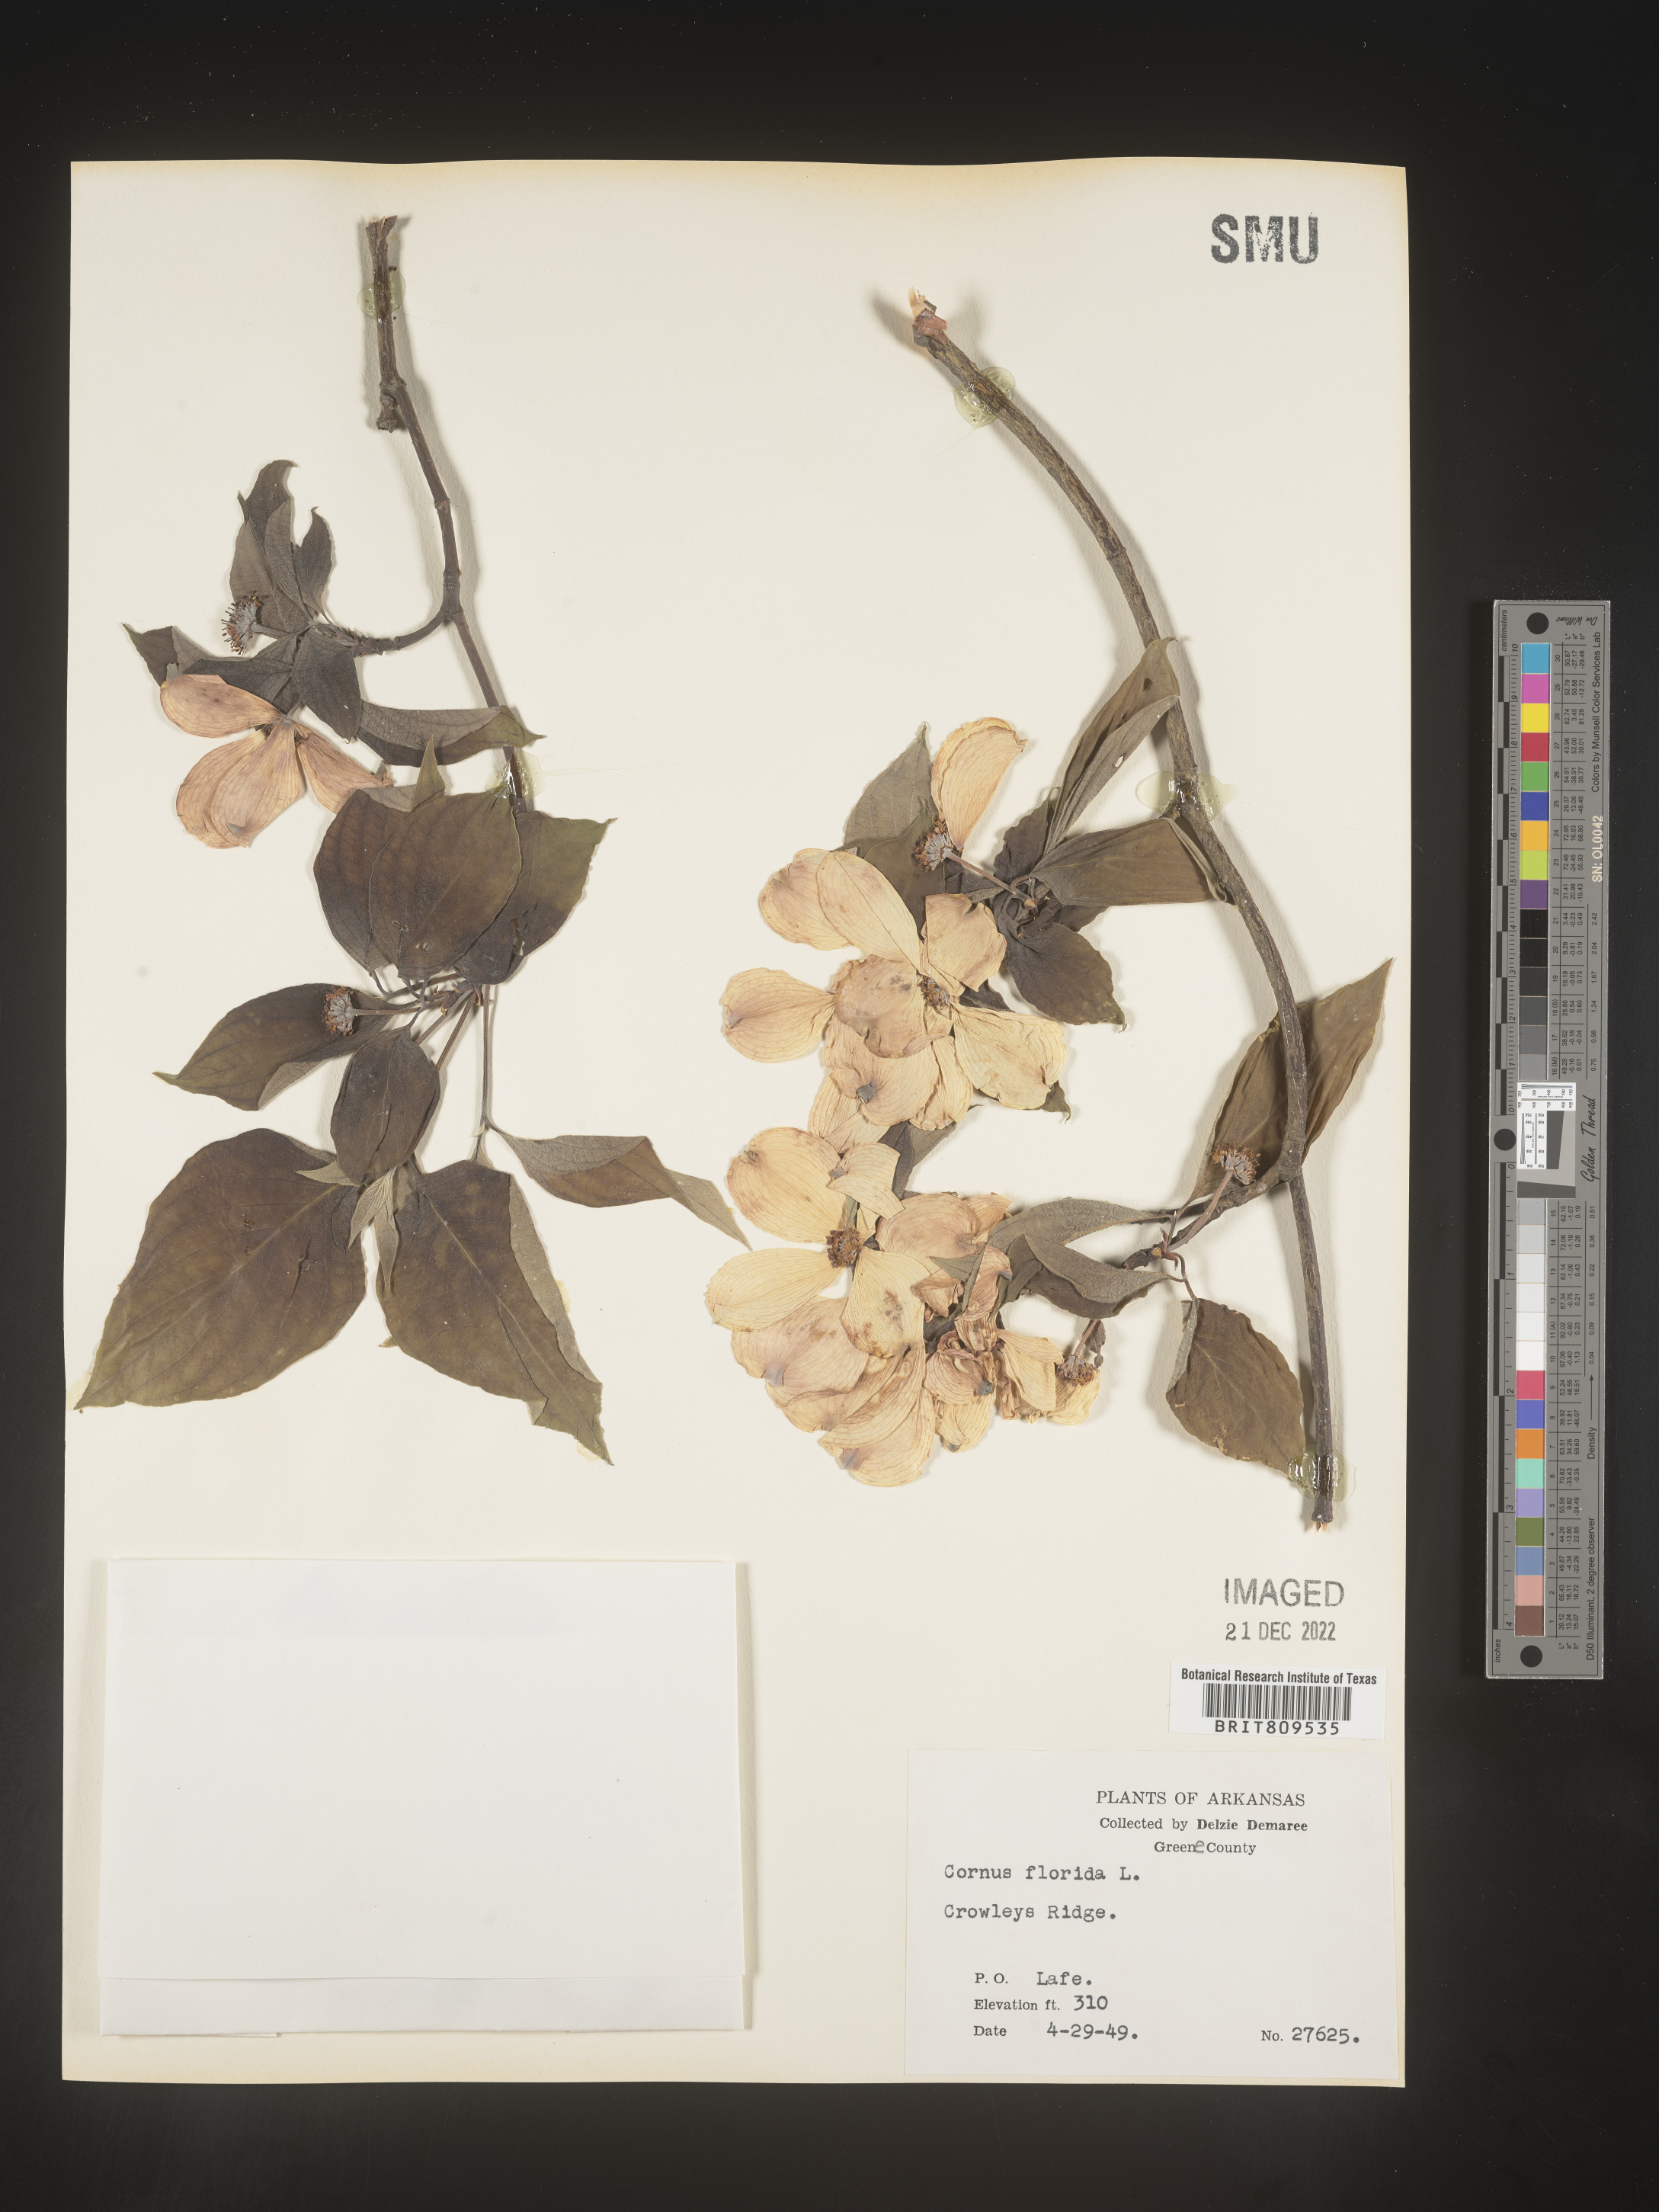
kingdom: Plantae
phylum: Tracheophyta
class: Magnoliopsida
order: Cornales
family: Cornaceae
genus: Cornus
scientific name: Cornus florida
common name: Flowering dogwood
